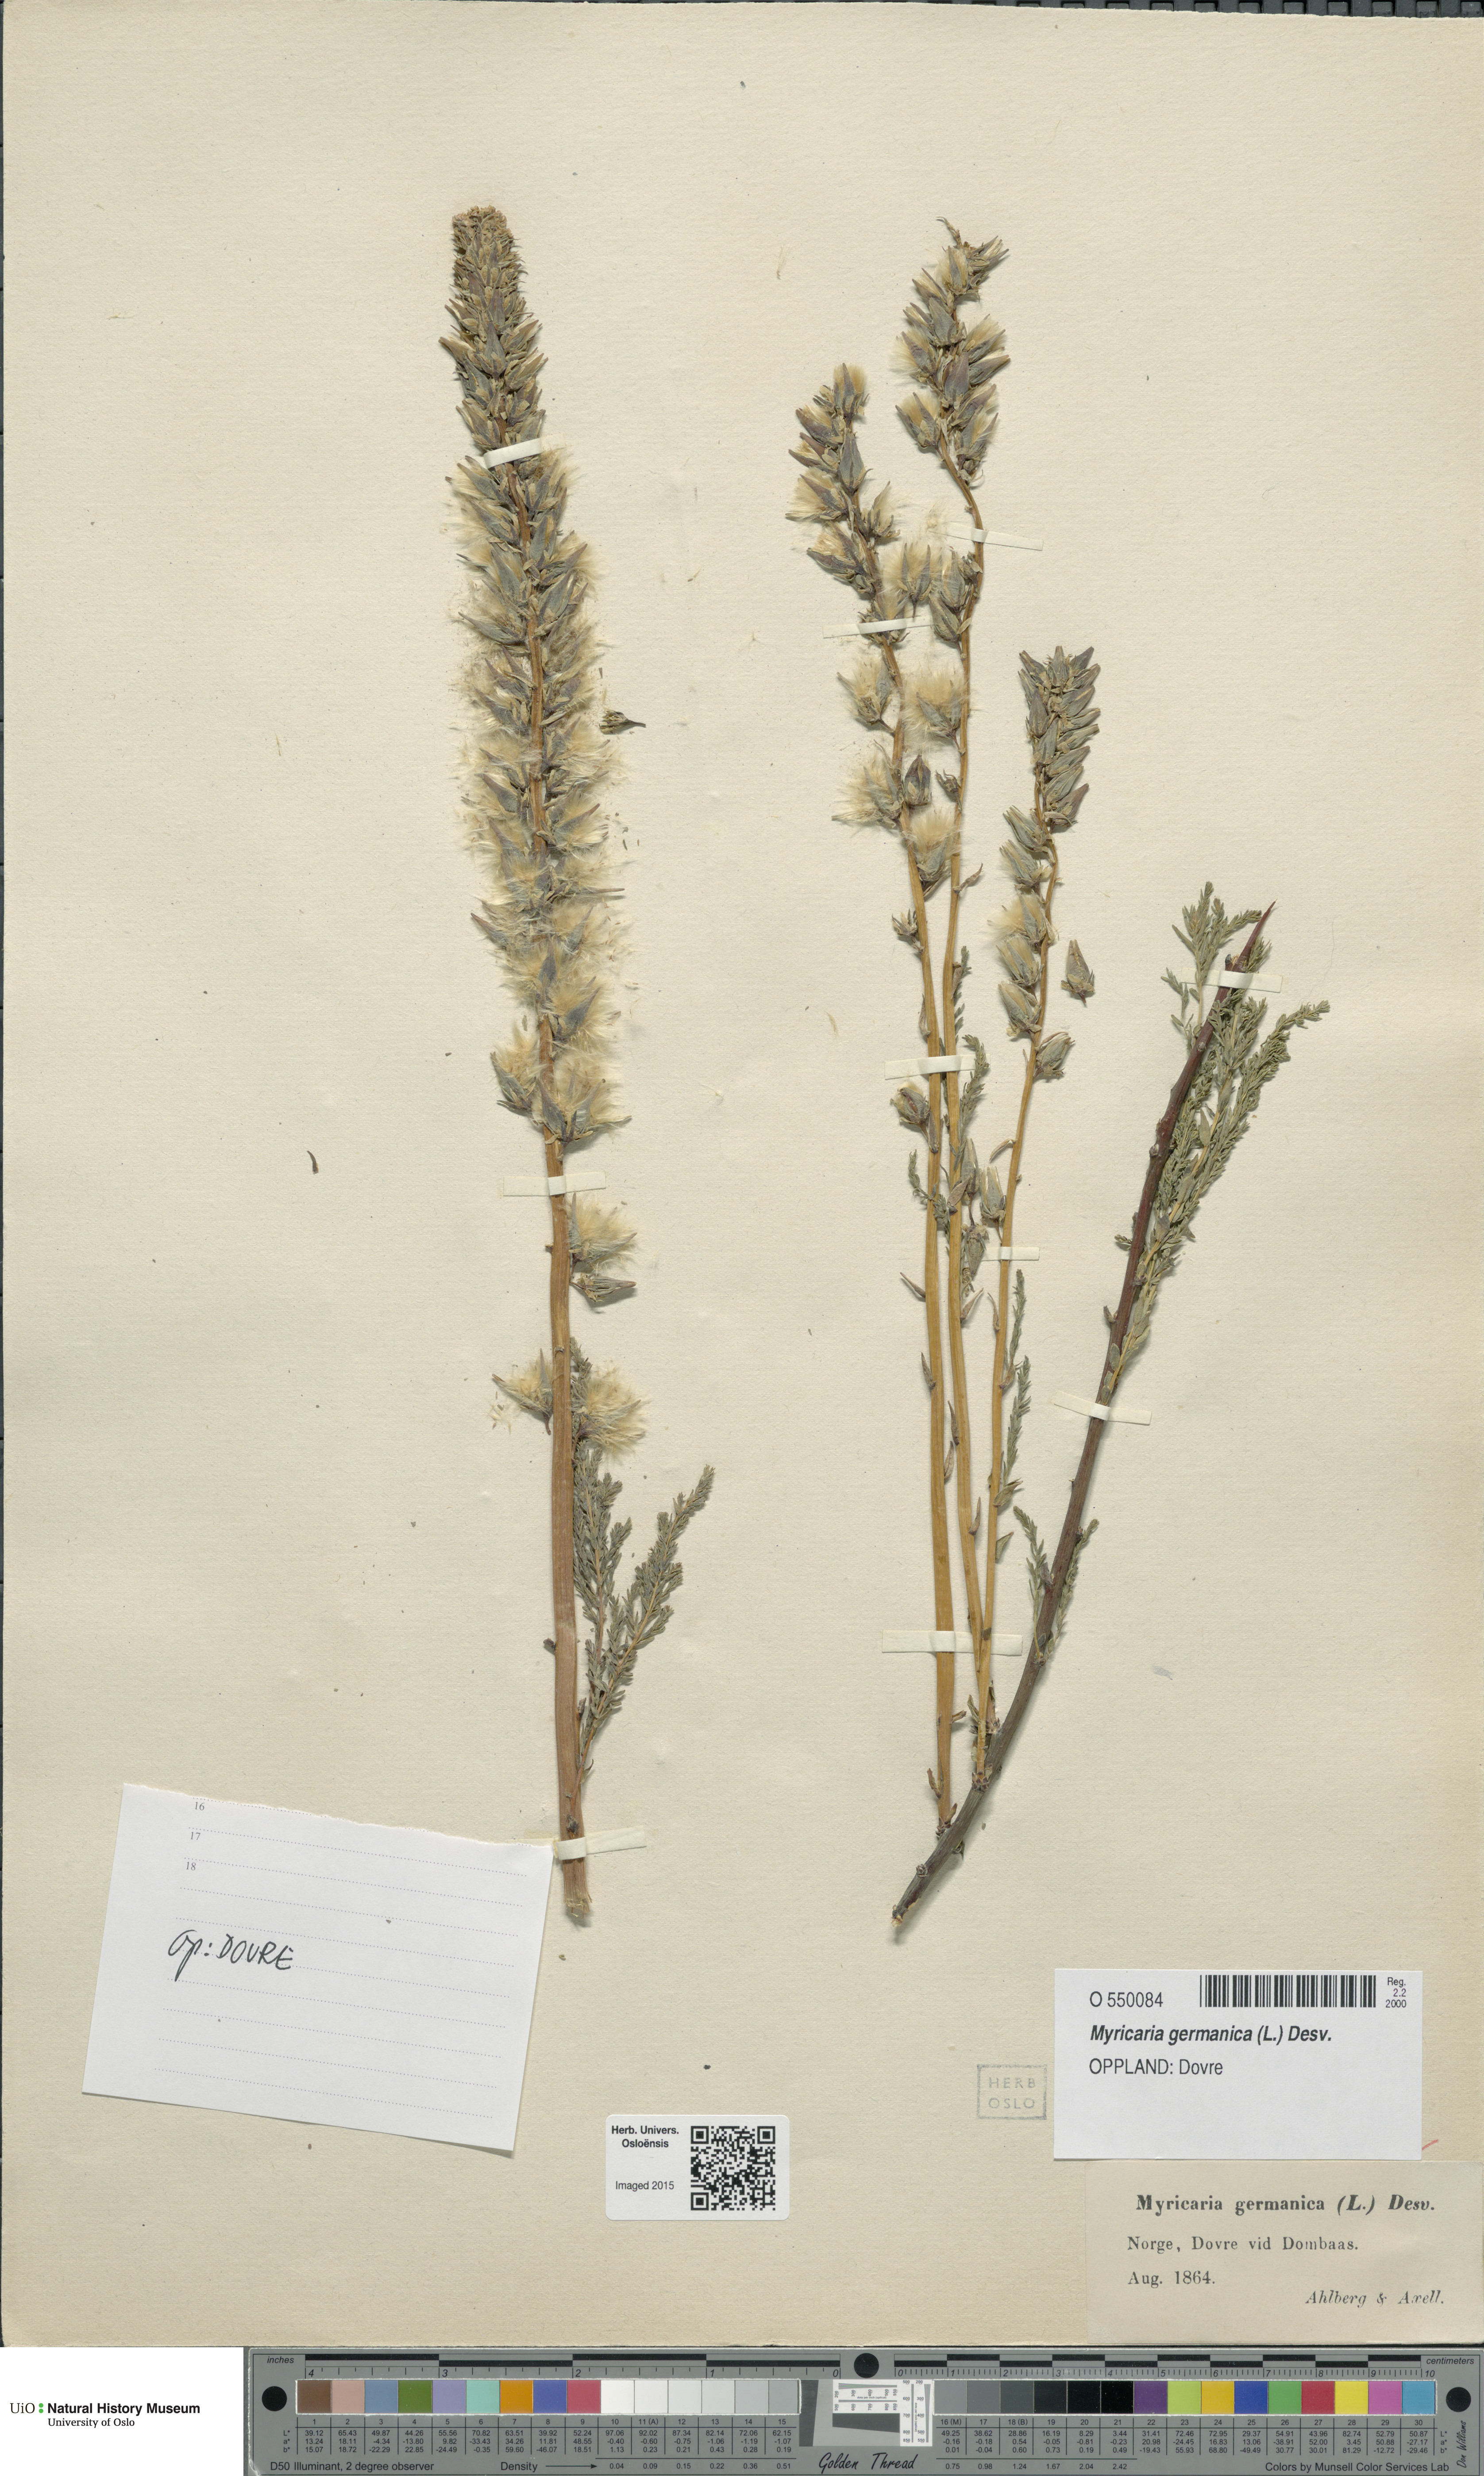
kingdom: Plantae
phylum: Tracheophyta
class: Magnoliopsida
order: Caryophyllales
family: Tamaricaceae
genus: Myricaria
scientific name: Myricaria germanica
